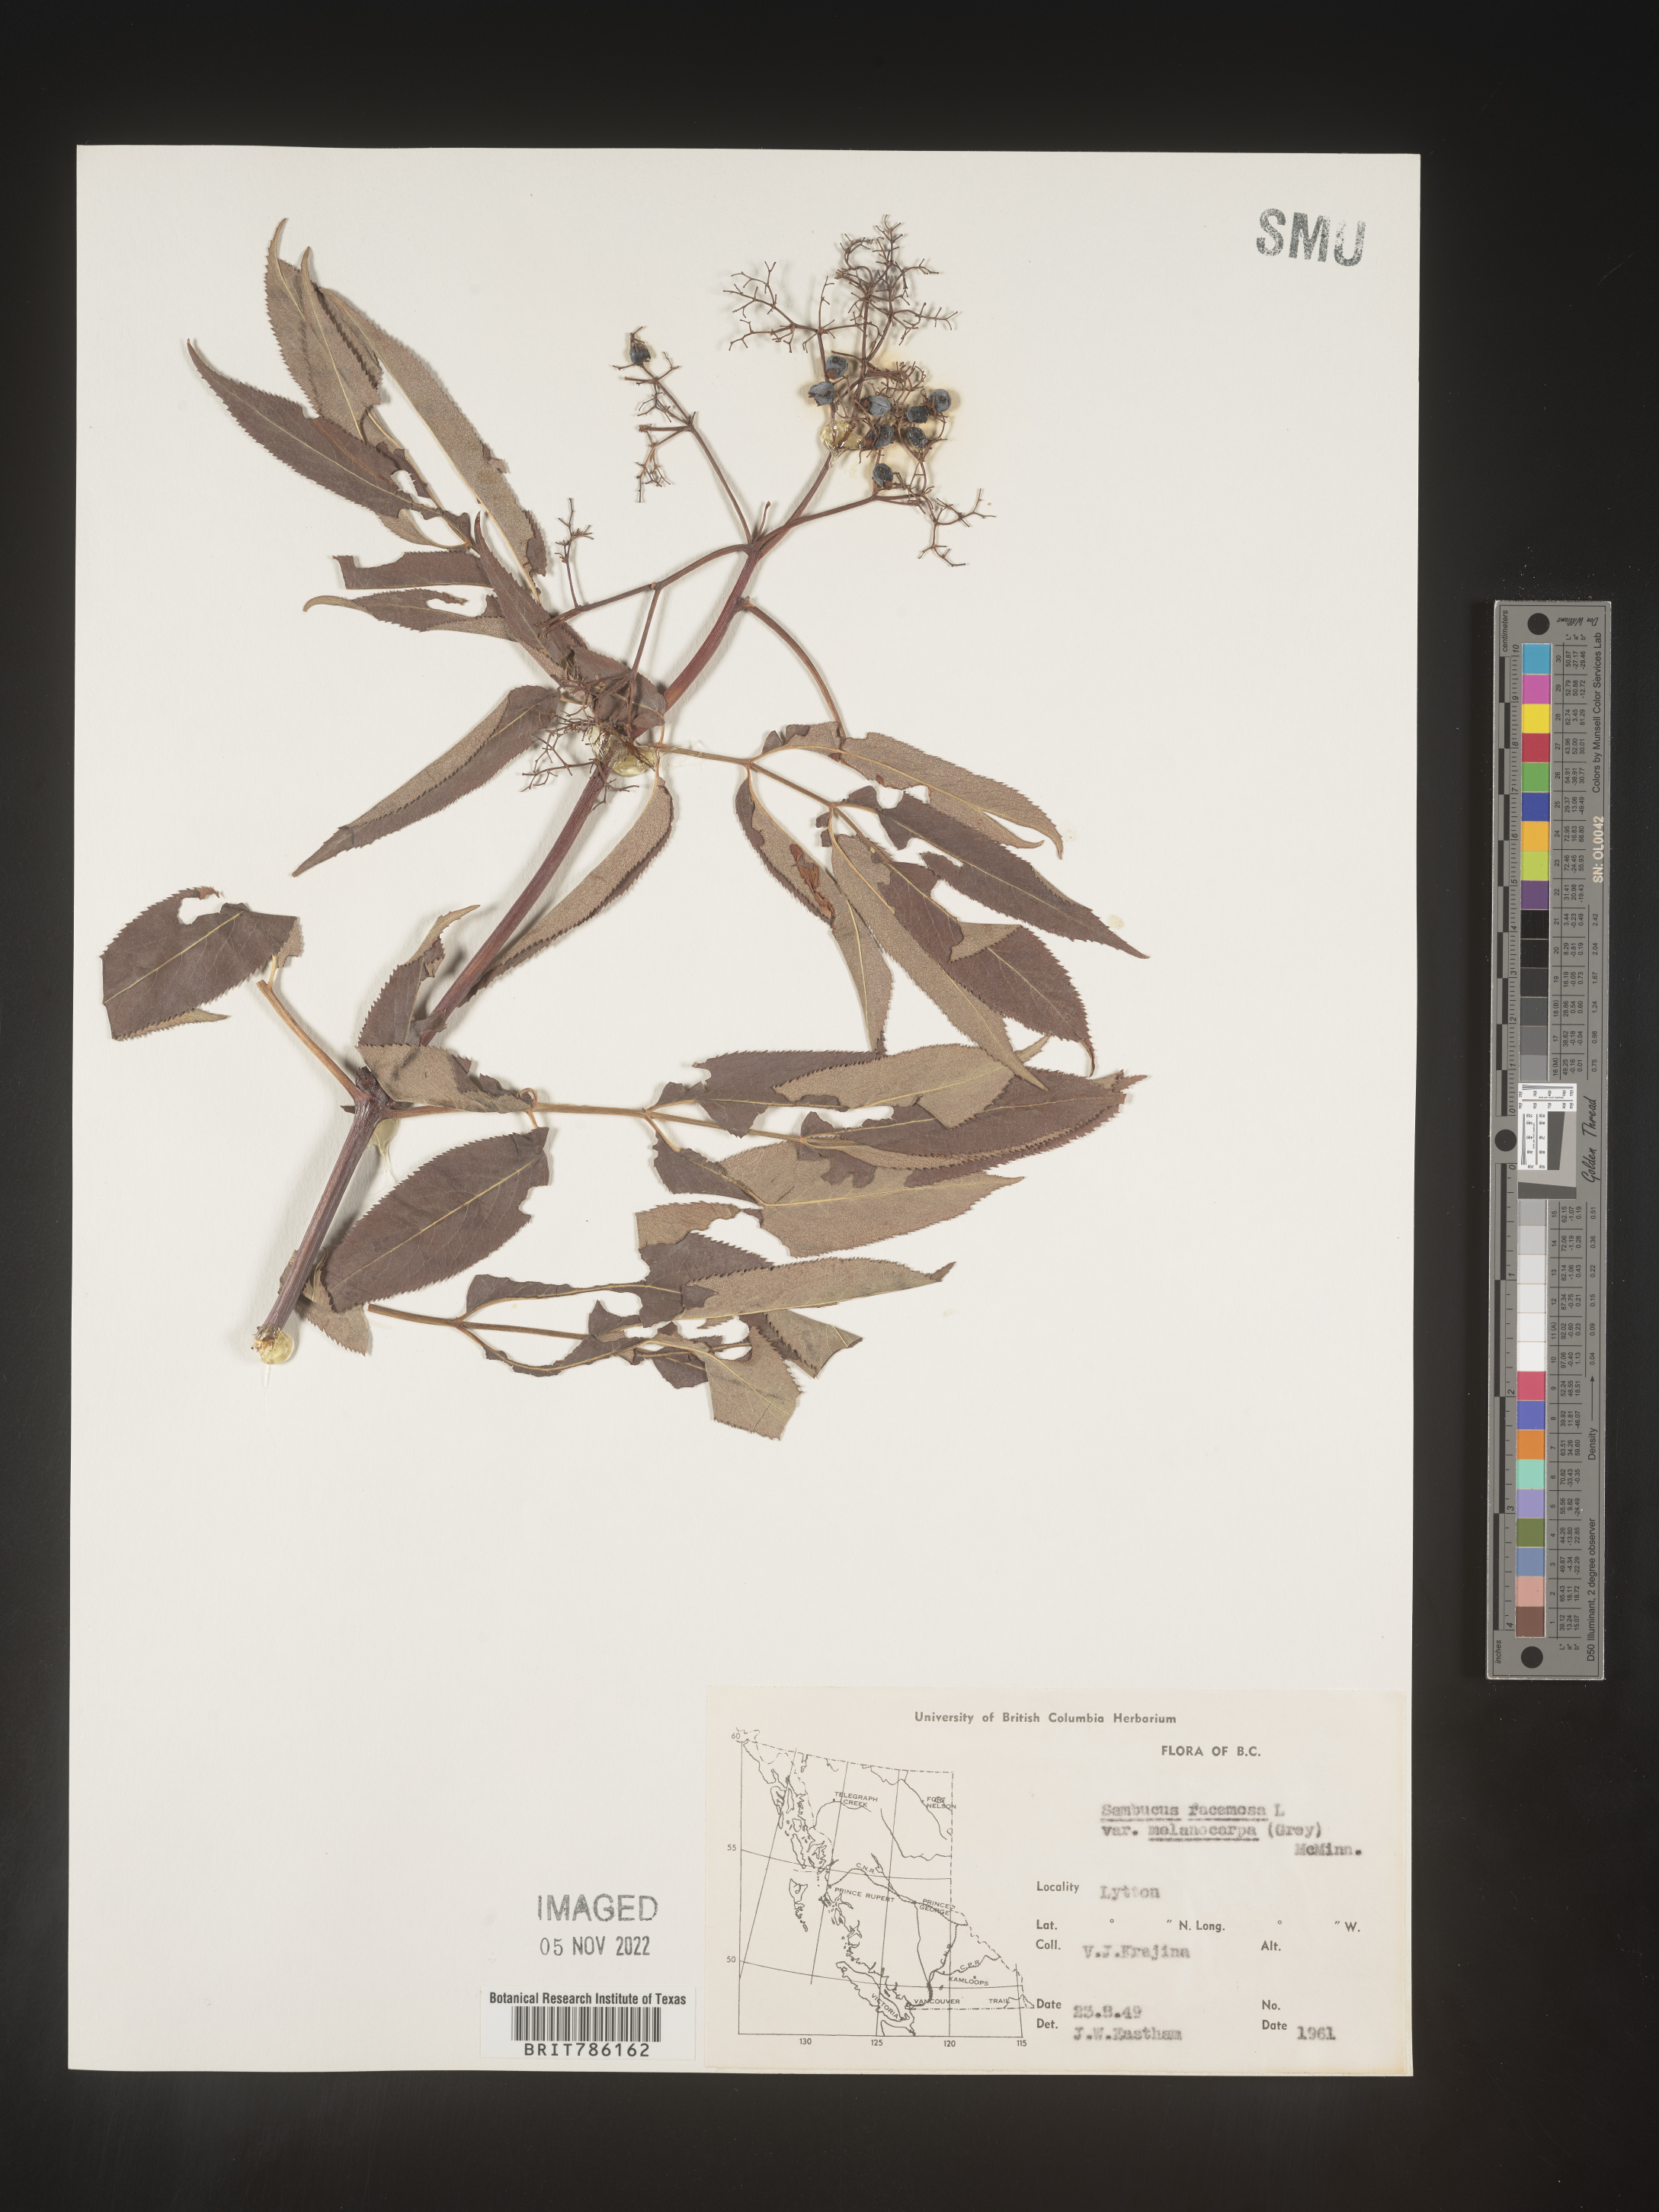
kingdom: Plantae
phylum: Tracheophyta
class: Magnoliopsida
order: Dipsacales
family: Viburnaceae
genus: Sambucus
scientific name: Sambucus
